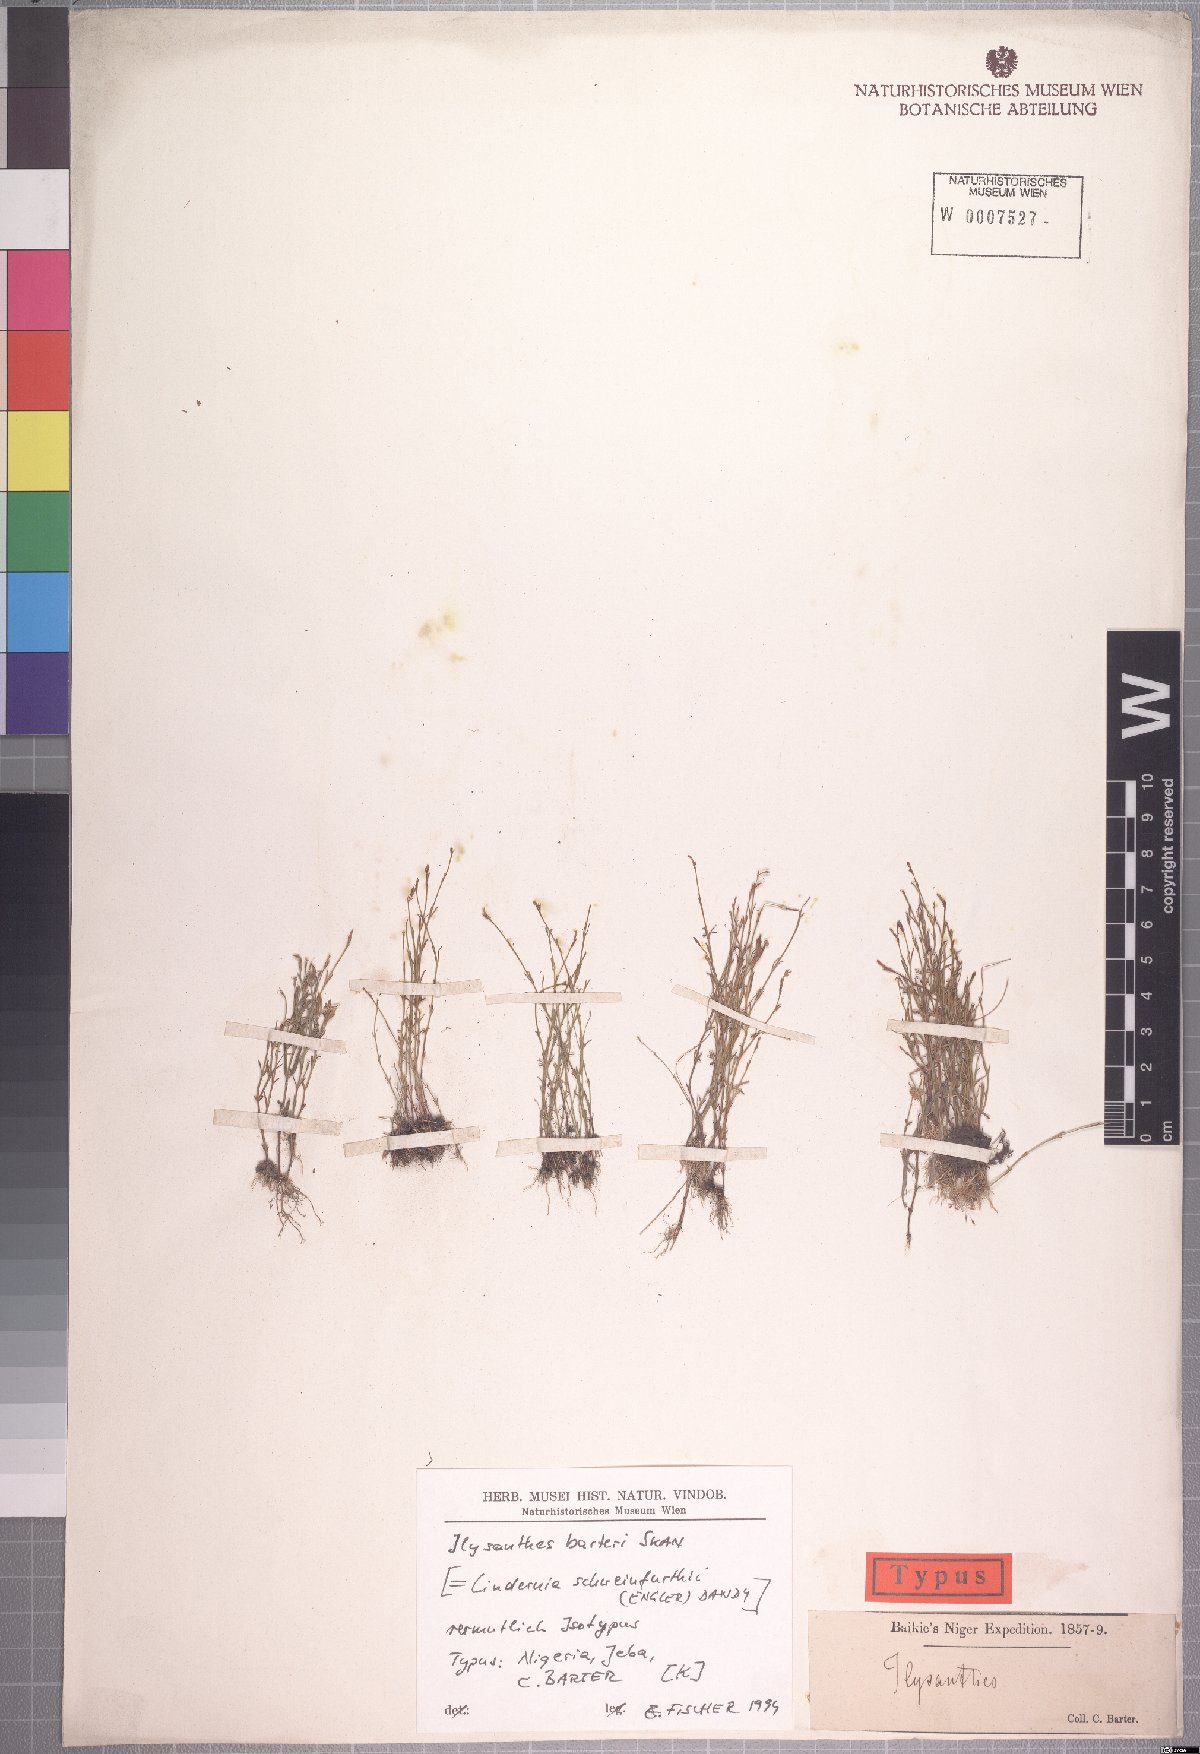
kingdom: Plantae
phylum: Tracheophyta
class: Magnoliopsida
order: Lamiales
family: Linderniaceae
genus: Linderniella
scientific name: Linderniella trichotoma
